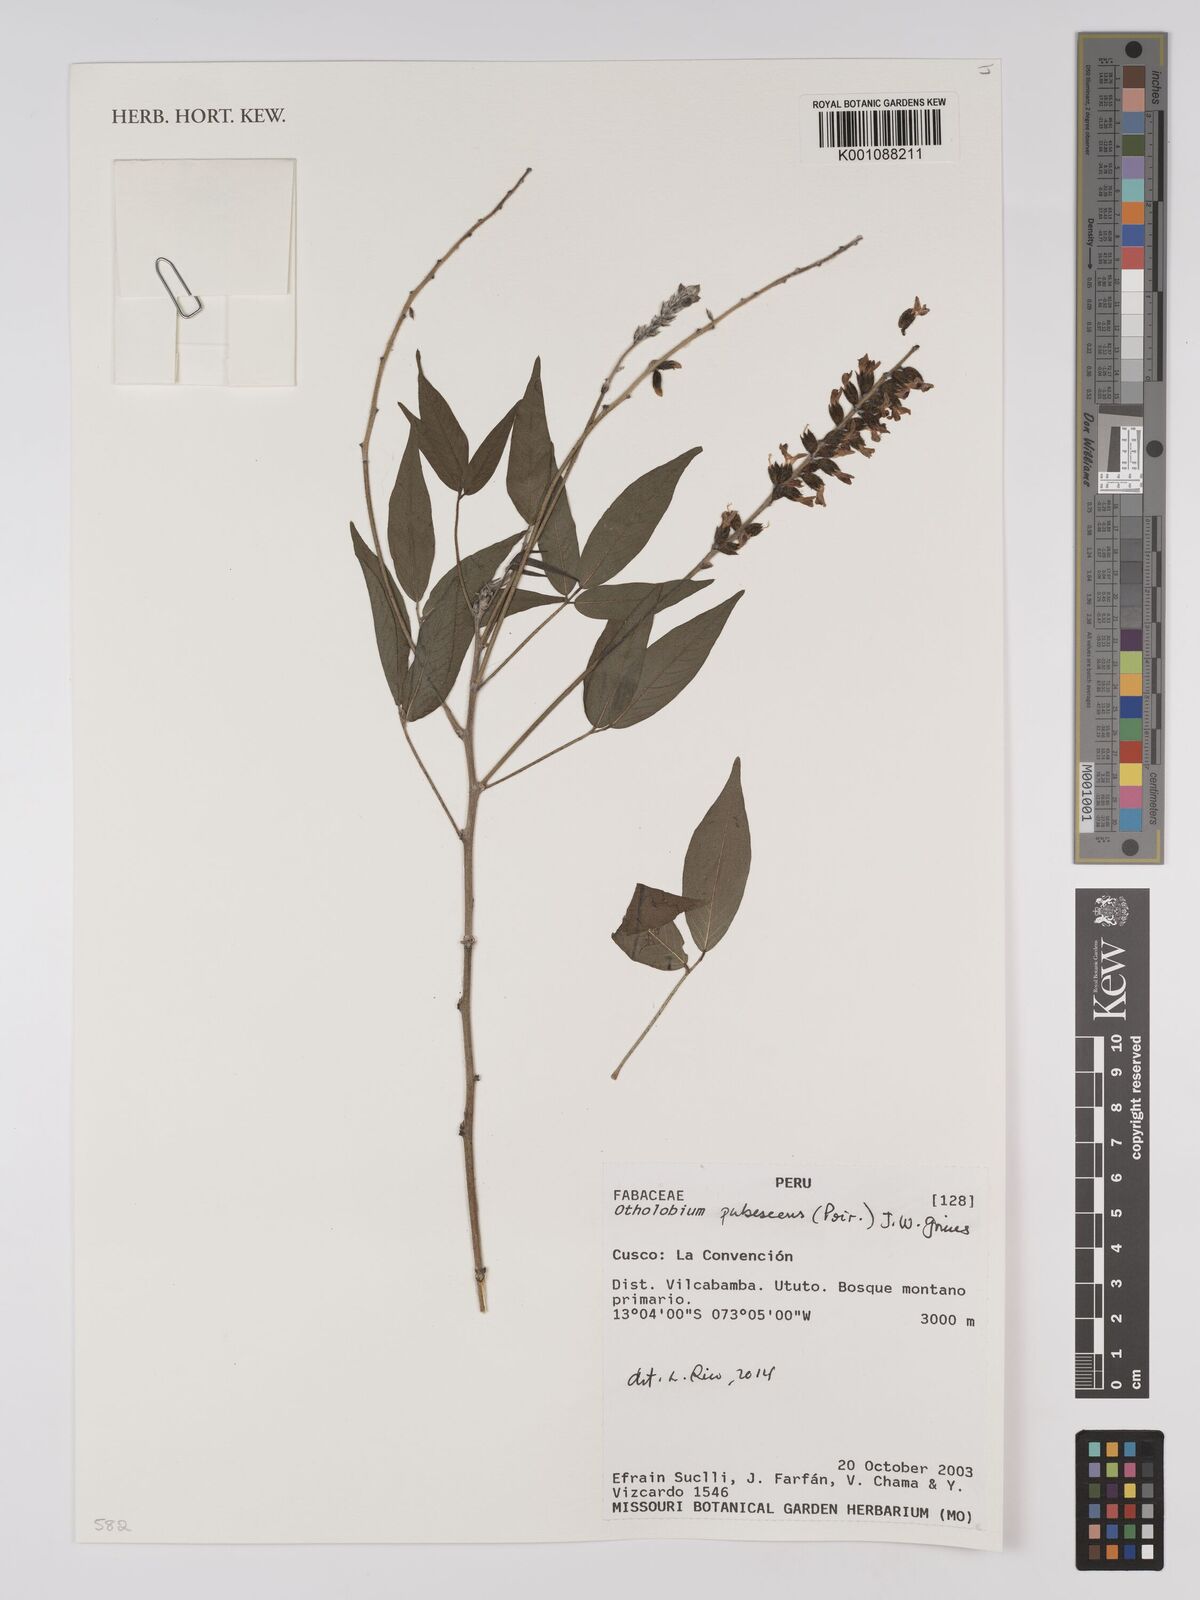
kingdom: Plantae
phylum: Tracheophyta
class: Magnoliopsida
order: Fabales
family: Fabaceae
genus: Psoralea
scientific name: Psoralea Otholobium pubescens
